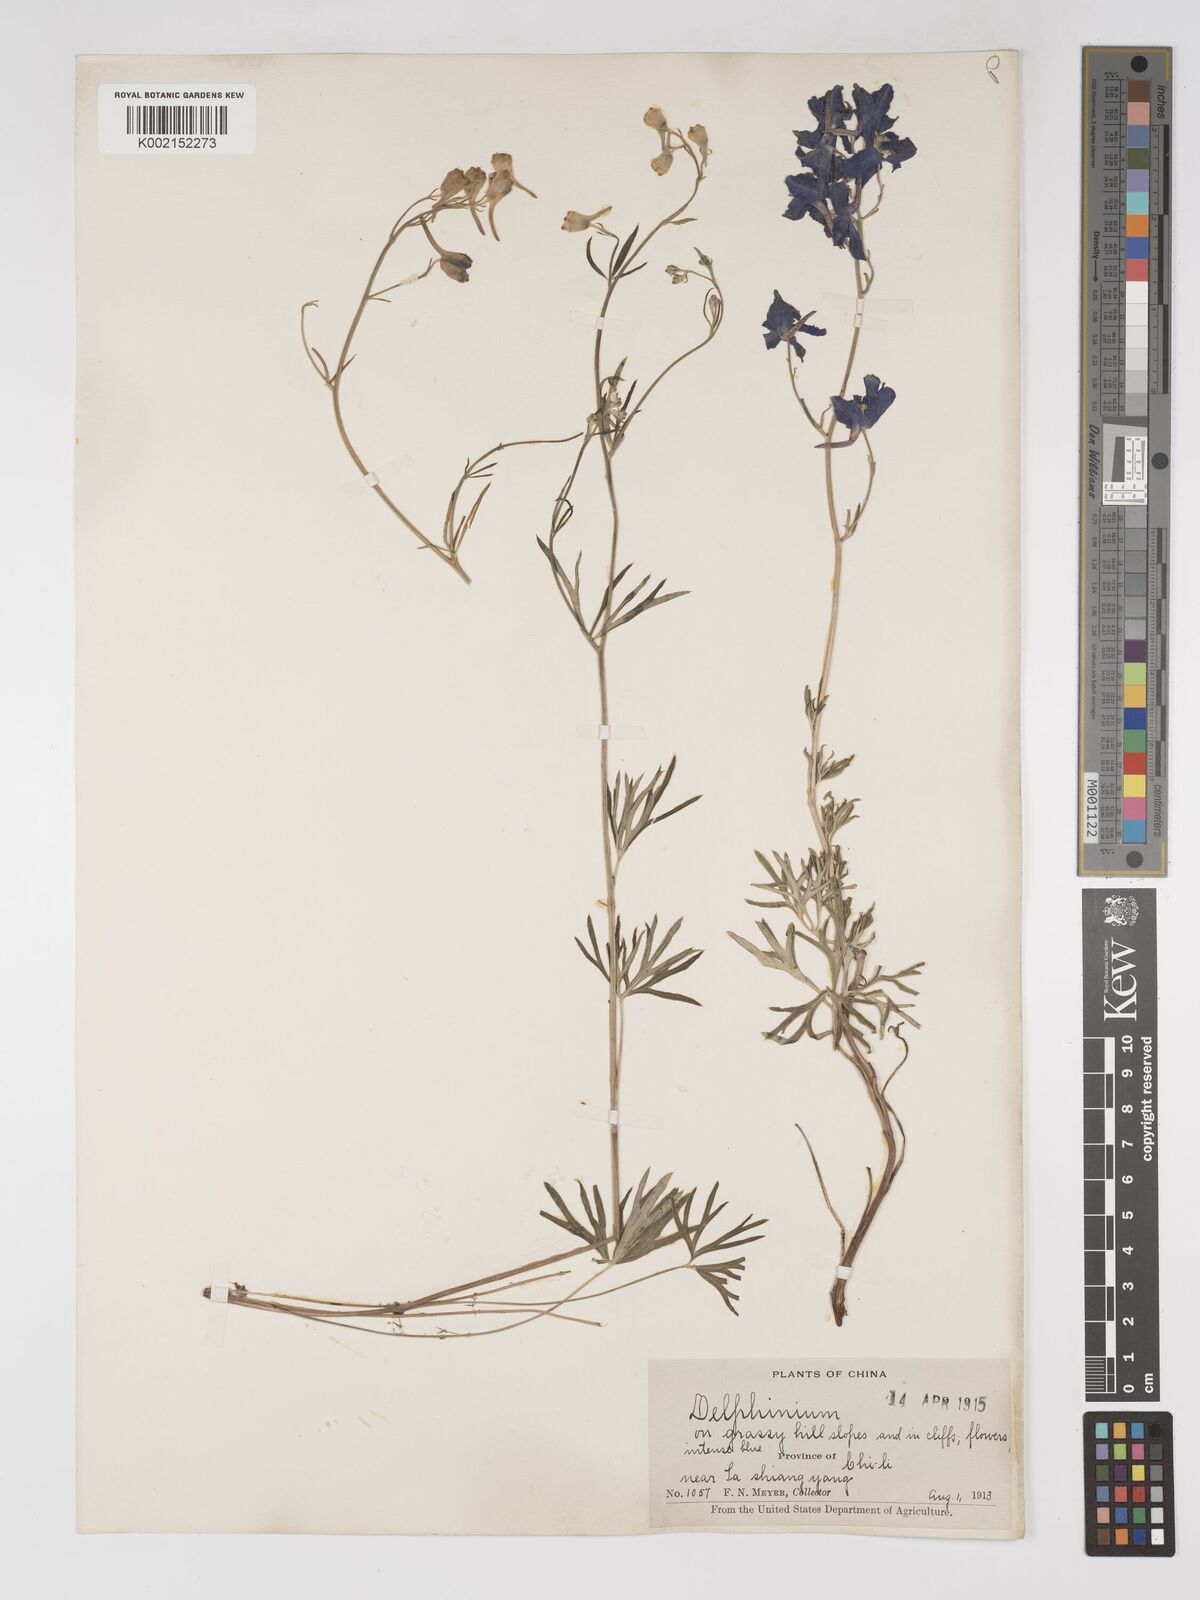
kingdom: Plantae
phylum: Tracheophyta
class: Magnoliopsida
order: Ranunculales
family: Ranunculaceae
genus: Delphinium
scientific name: Delphinium grandiflorum
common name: Siberian larkspur
